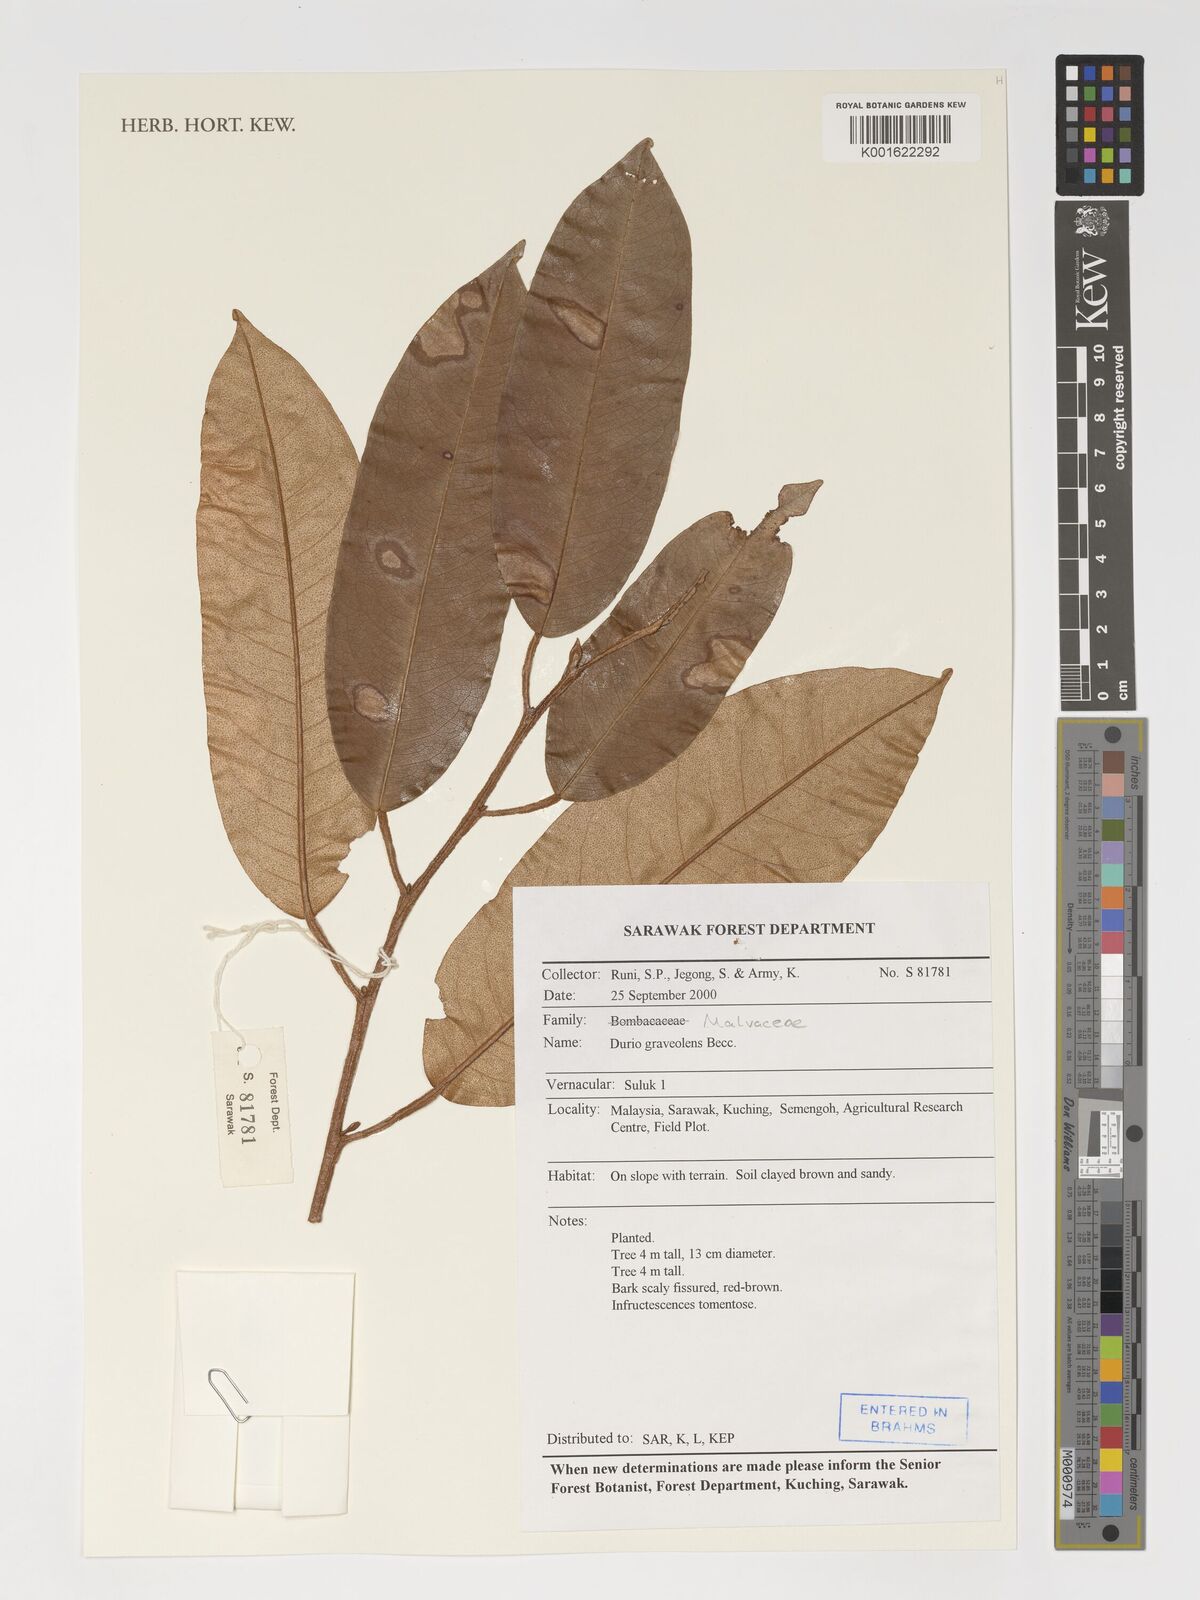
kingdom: Plantae
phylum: Tracheophyta
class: Magnoliopsida
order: Malvales
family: Malvaceae
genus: Durio
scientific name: Durio graveolens
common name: Durian
